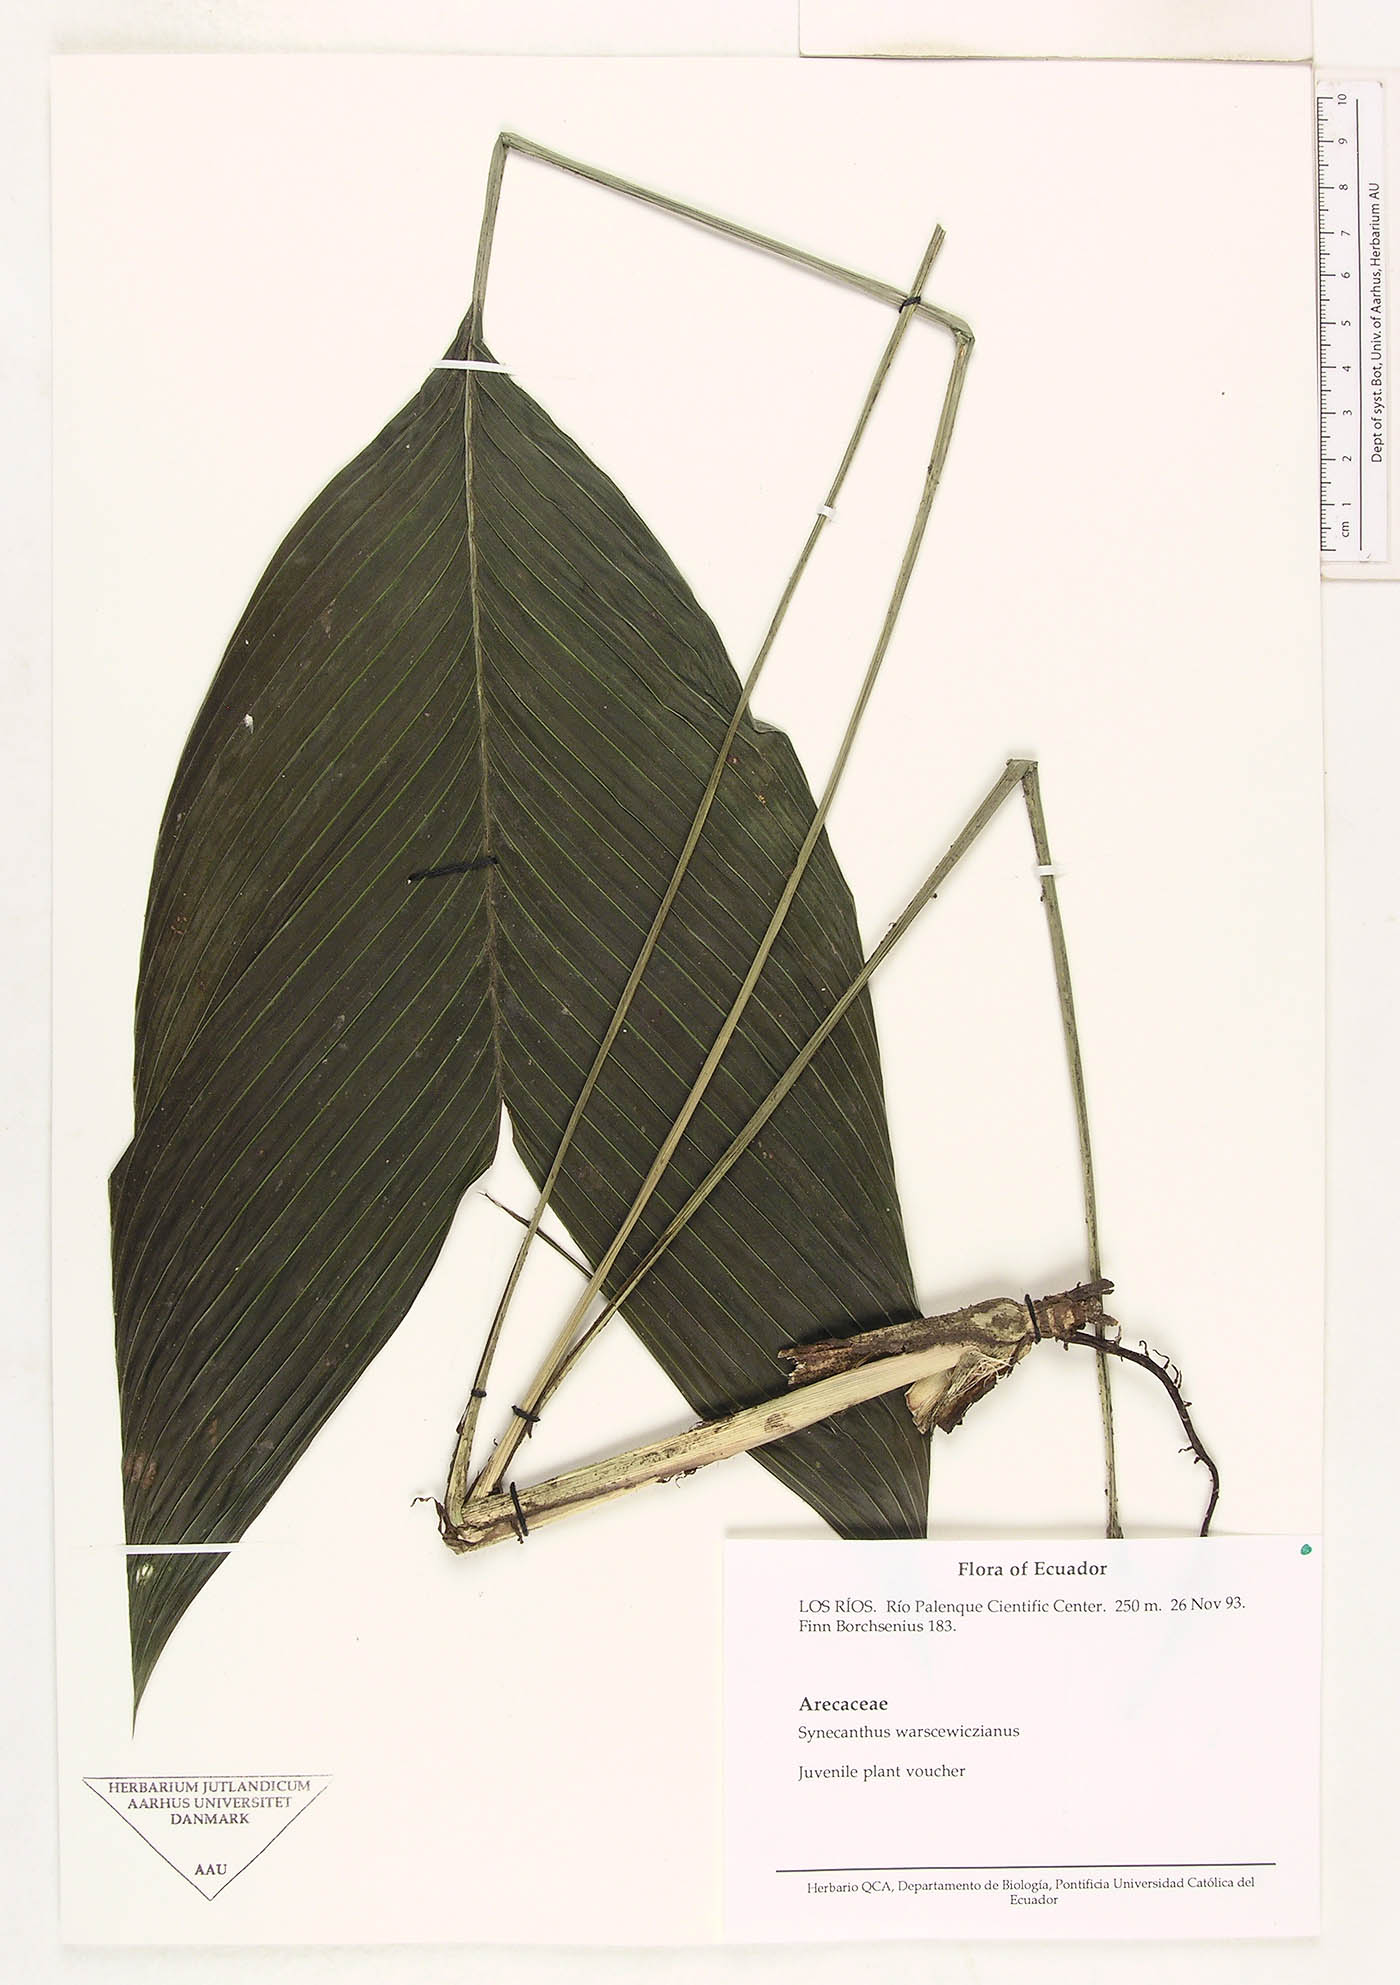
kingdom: Plantae
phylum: Tracheophyta
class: Liliopsida
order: Arecales
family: Arecaceae
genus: Synechanthus
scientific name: Synechanthus warscewiczianus
